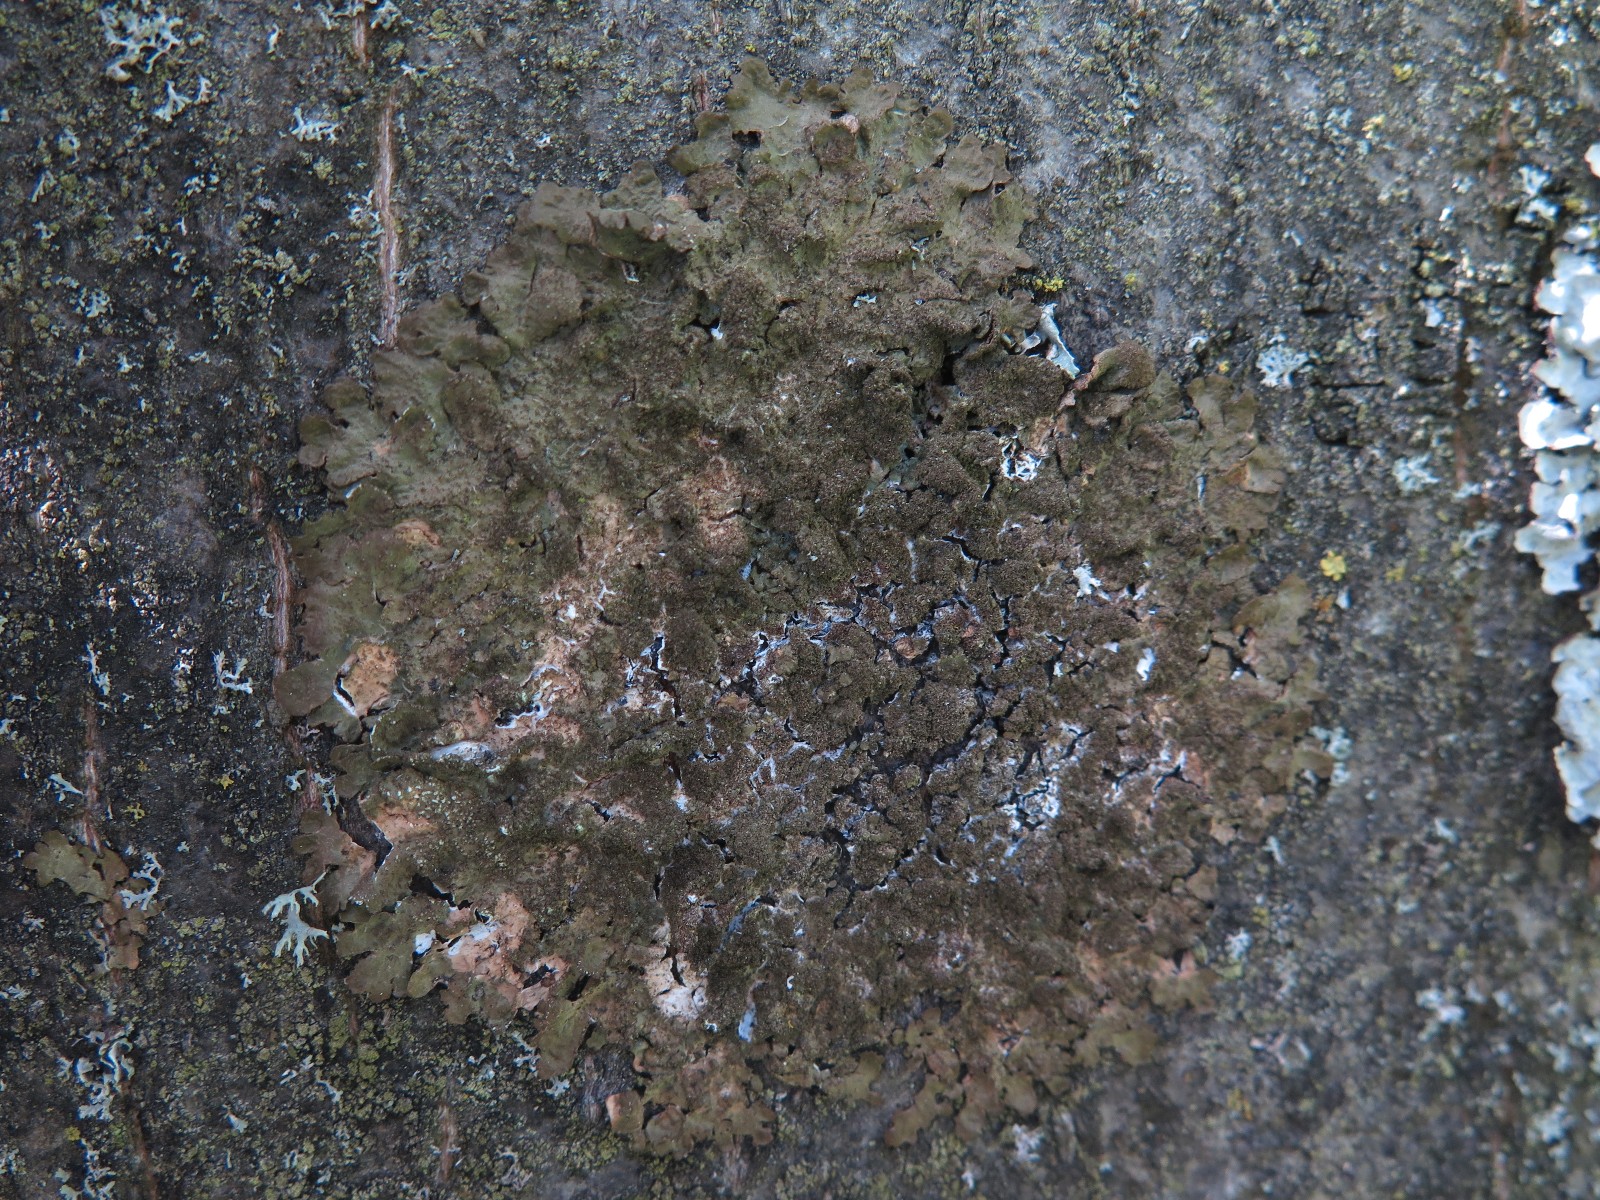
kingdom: Fungi
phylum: Ascomycota
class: Lecanoromycetes
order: Lecanorales
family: Parmeliaceae
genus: Melanelixia
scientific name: Melanelixia subaurifera
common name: guldpudret skållav
